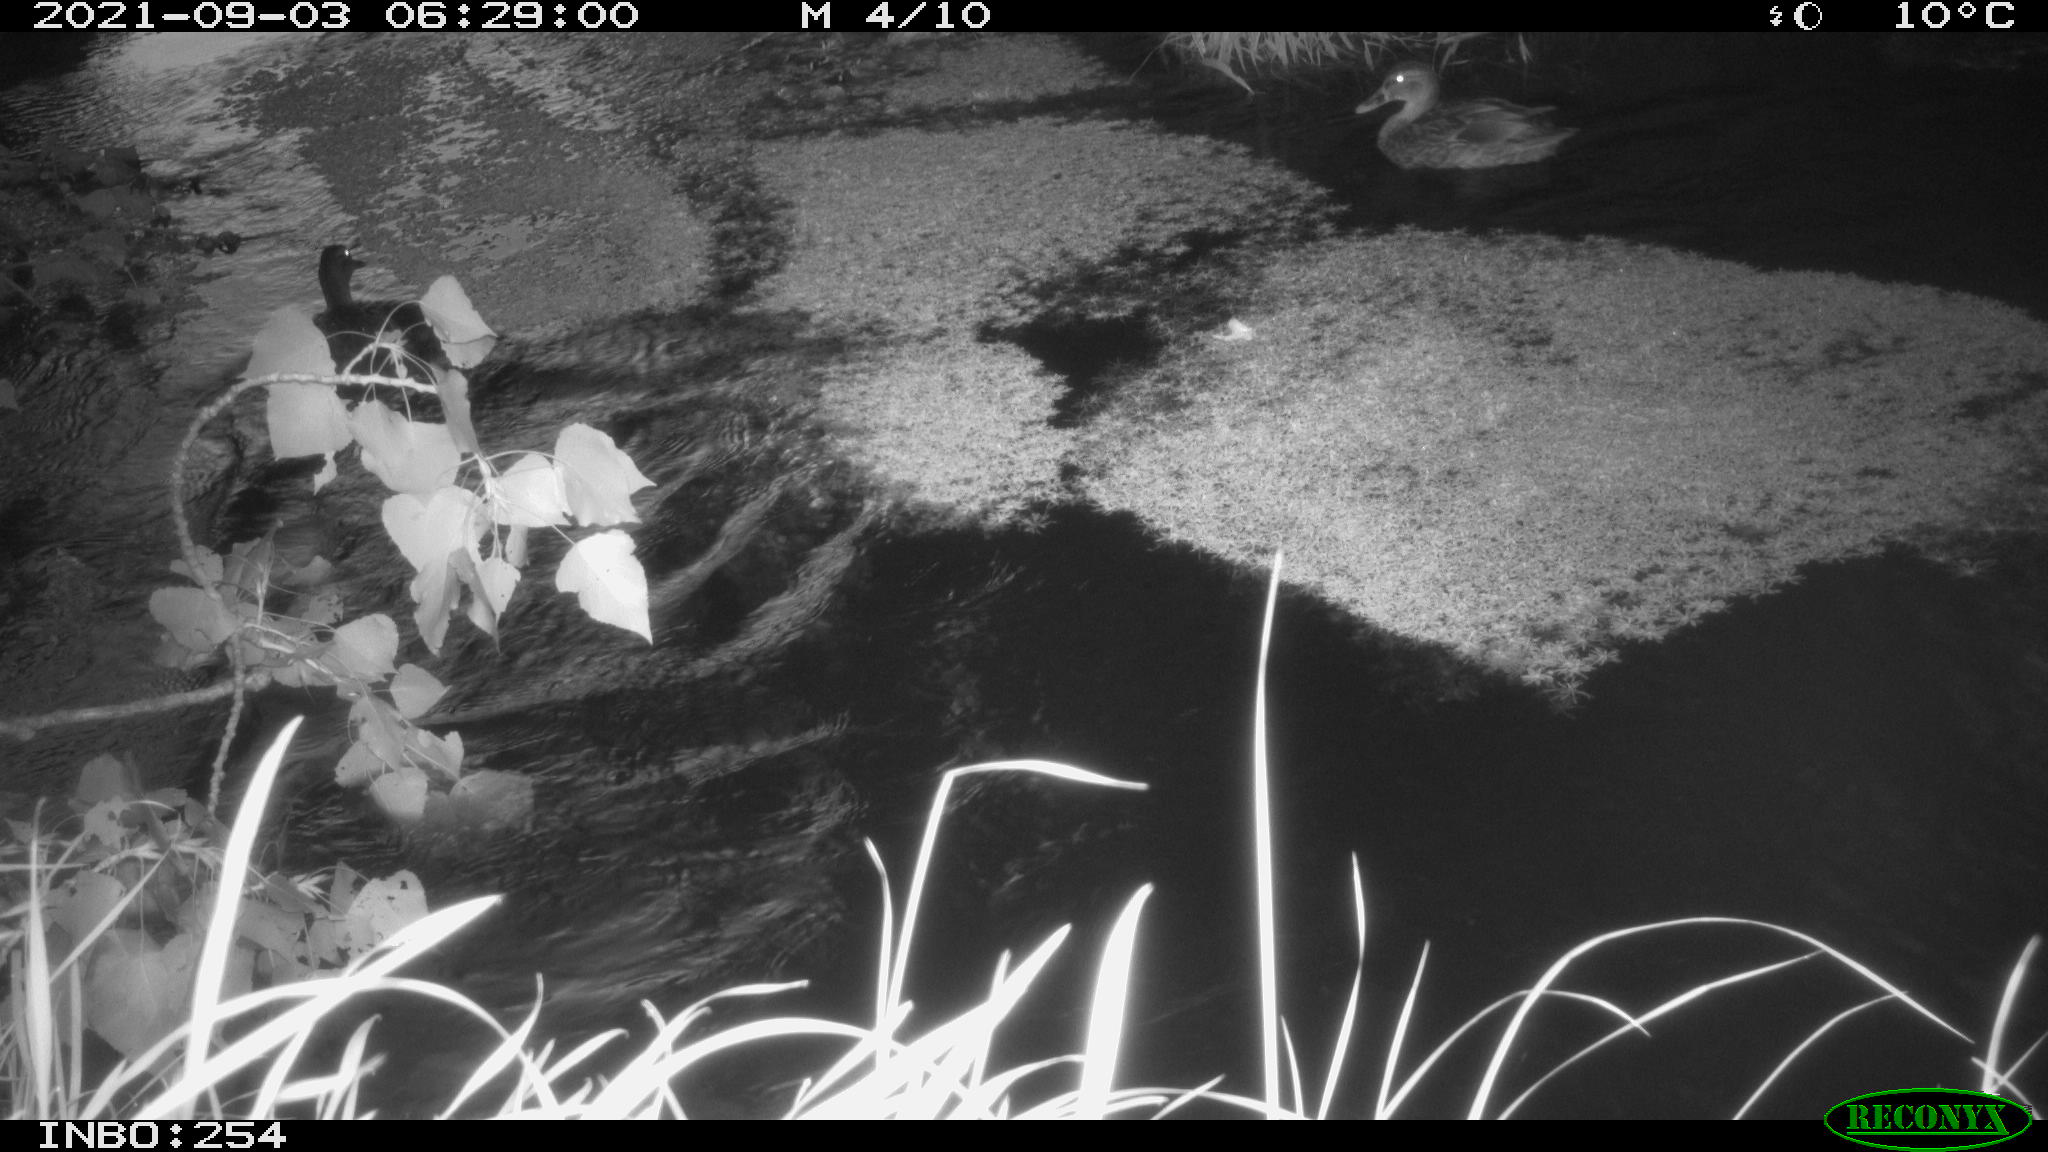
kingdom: Animalia
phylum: Chordata
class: Aves
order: Anseriformes
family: Anatidae
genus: Anas
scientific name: Anas platyrhynchos
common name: Mallard
